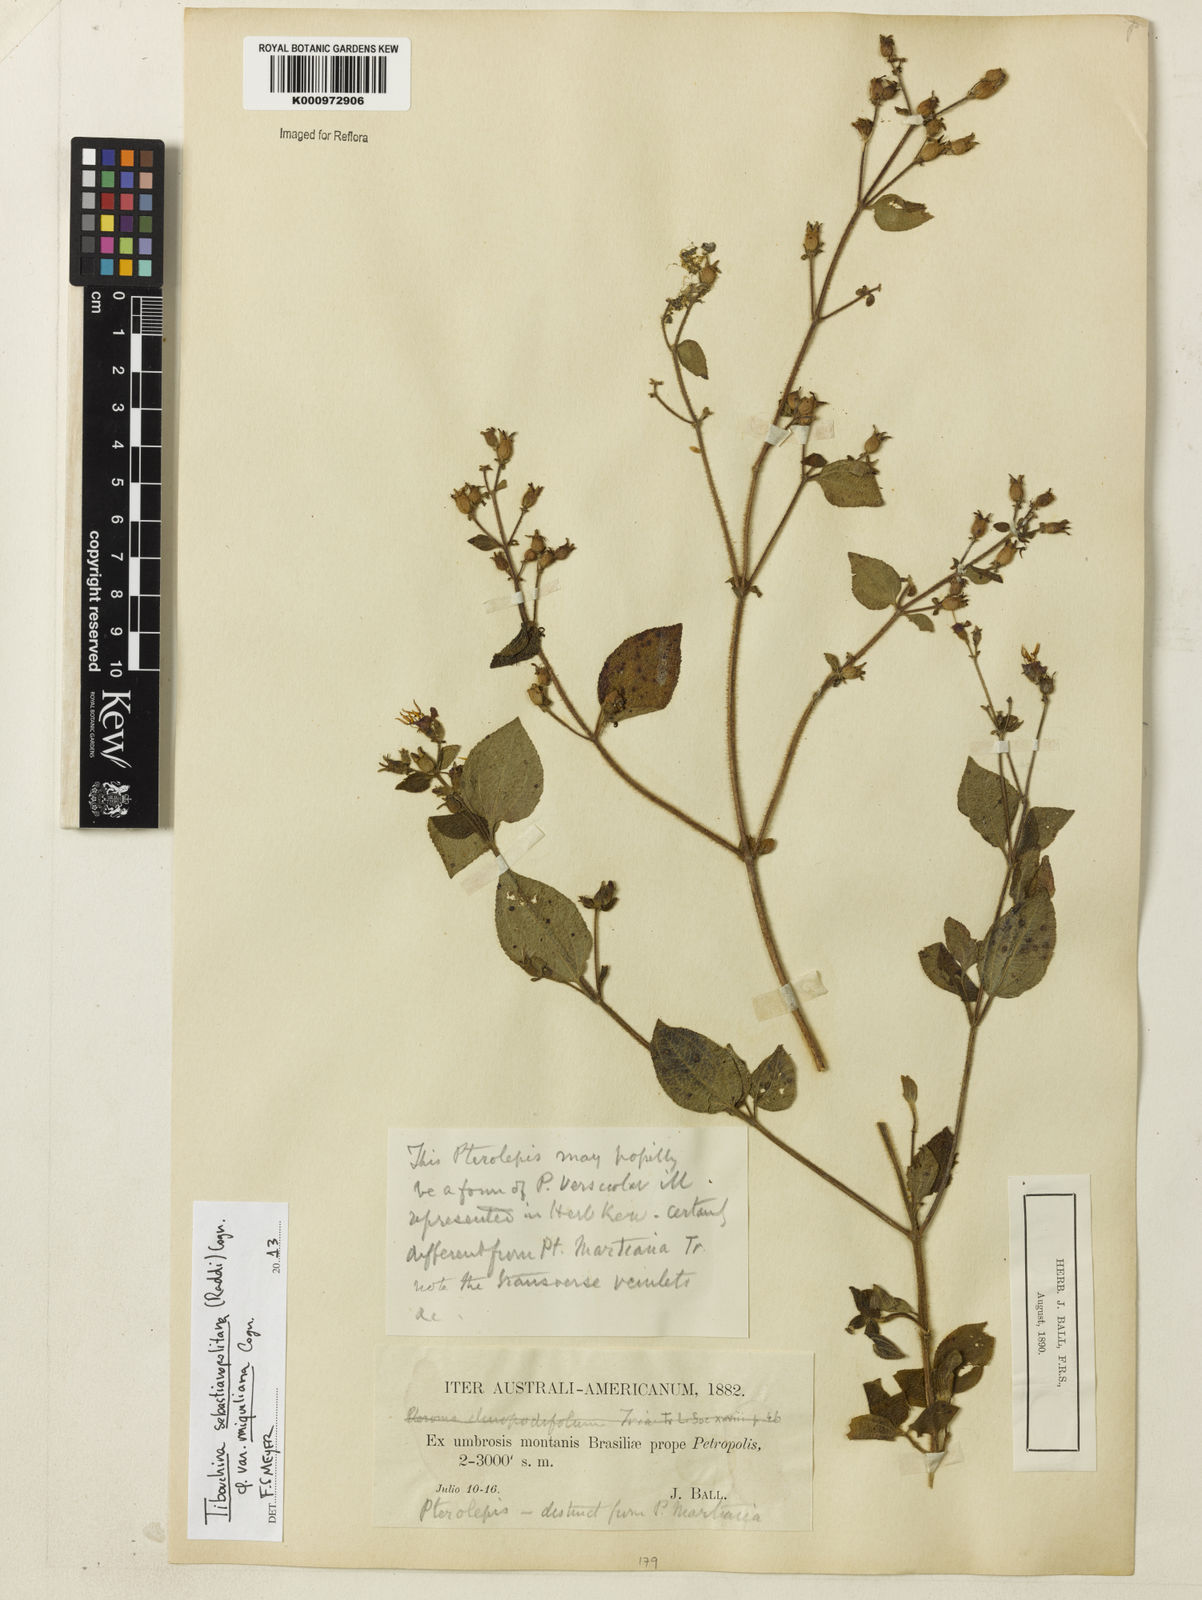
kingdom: Plantae
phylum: Tracheophyta
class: Magnoliopsida
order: Myrtales
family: Melastomataceae
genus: Chaetogastra
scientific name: Chaetogastra sebastianopolitana
